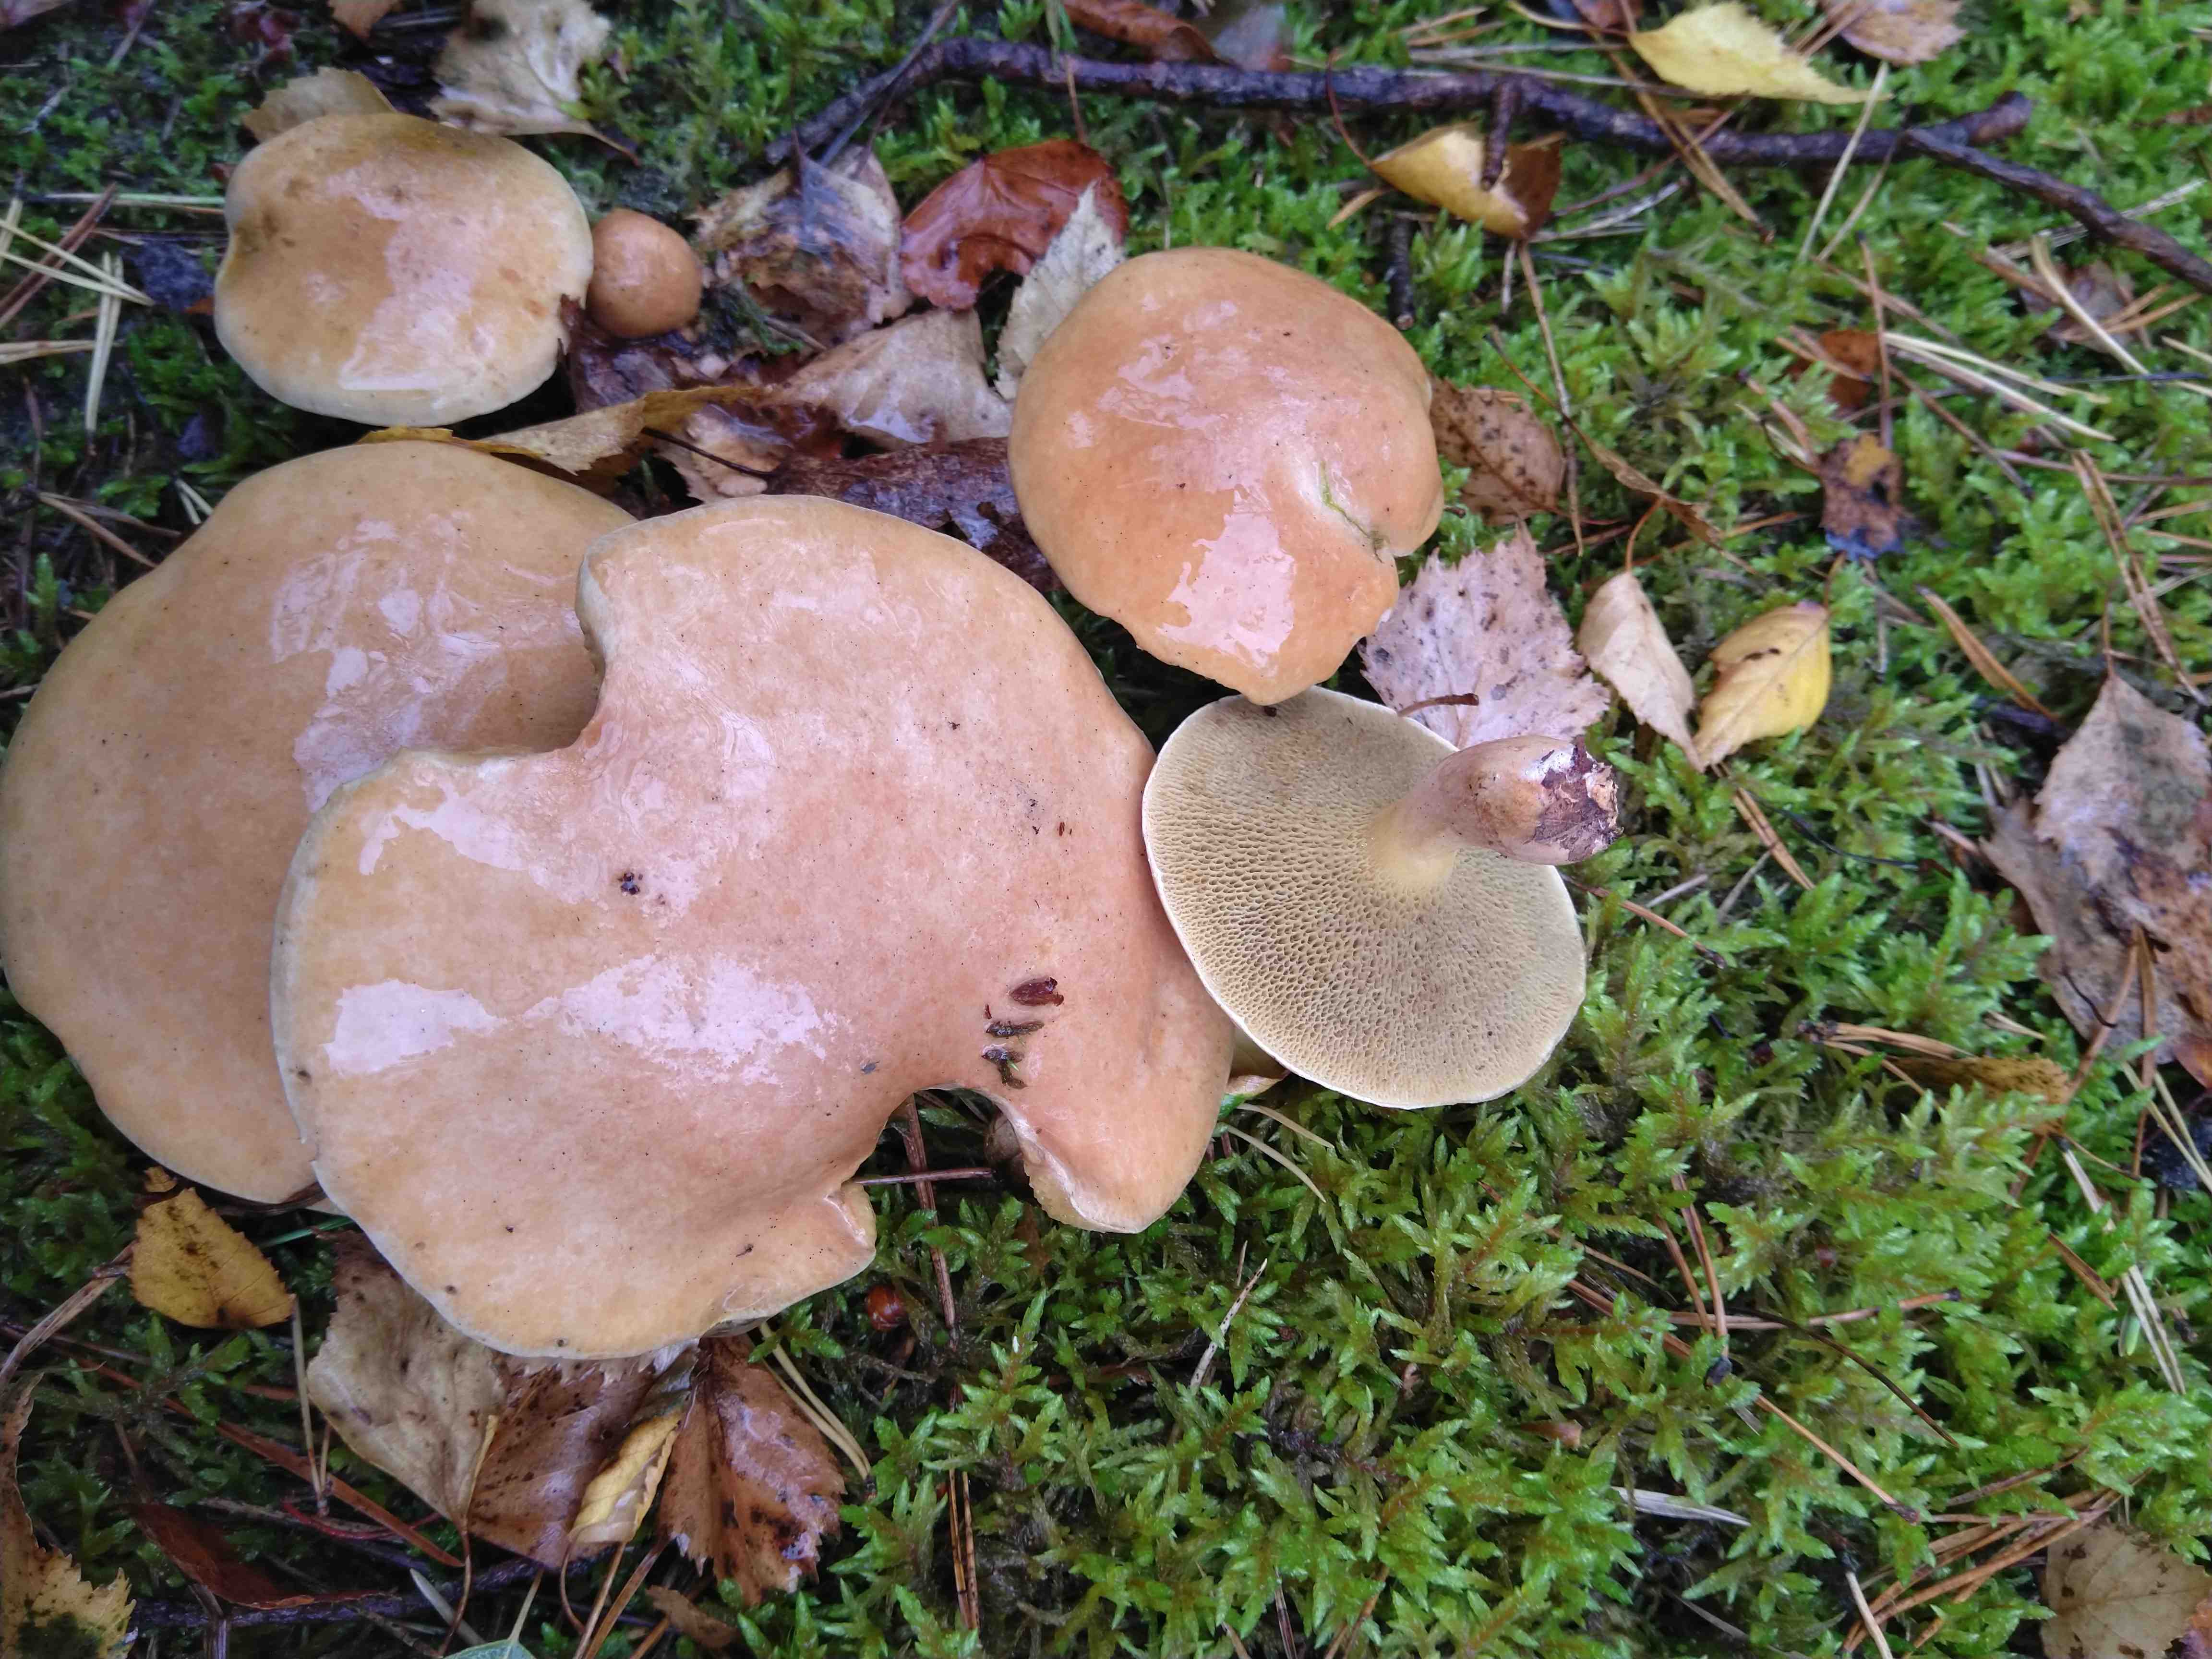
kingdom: Fungi
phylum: Basidiomycota
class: Agaricomycetes
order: Boletales
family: Suillaceae
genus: Suillus
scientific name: Suillus bovinus
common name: grovporet slimrørhat
